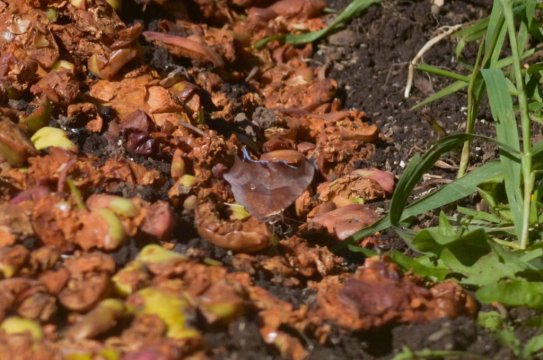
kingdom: Animalia
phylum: Arthropoda
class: Insecta
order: Lepidoptera
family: Nymphalidae
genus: Polygonia
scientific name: Polygonia interrogationis
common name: Question Mark
